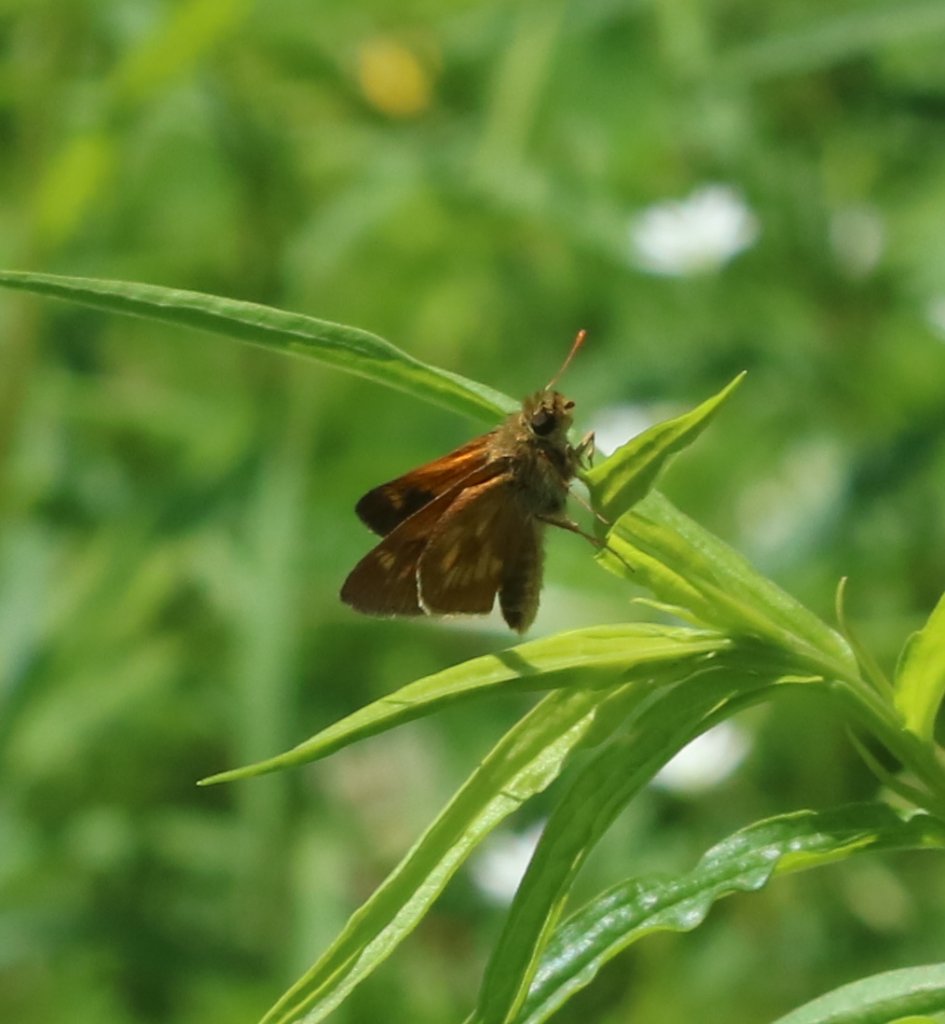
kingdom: Animalia
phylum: Arthropoda
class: Insecta
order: Lepidoptera
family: Hesperiidae
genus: Polites
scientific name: Polites
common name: Long Dash Skipper
